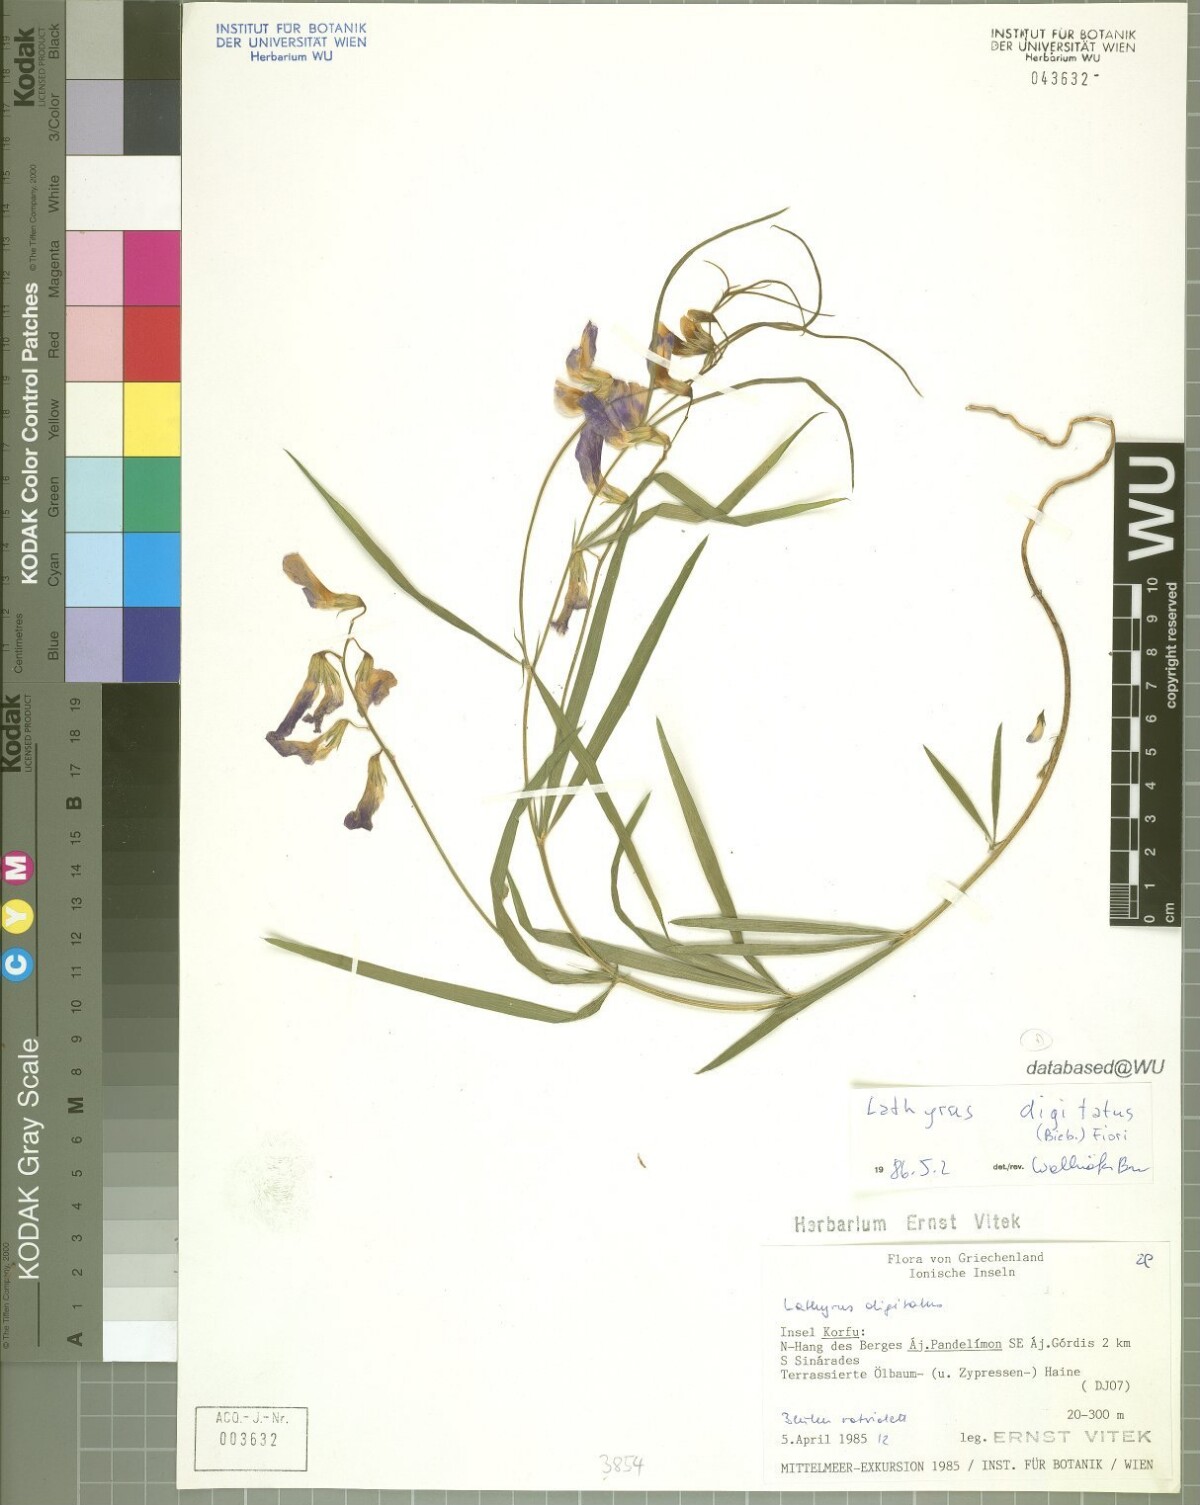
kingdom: Plantae
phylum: Tracheophyta
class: Magnoliopsida
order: Fabales
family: Fabaceae
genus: Lathyrus
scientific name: Lathyrus digitatus
